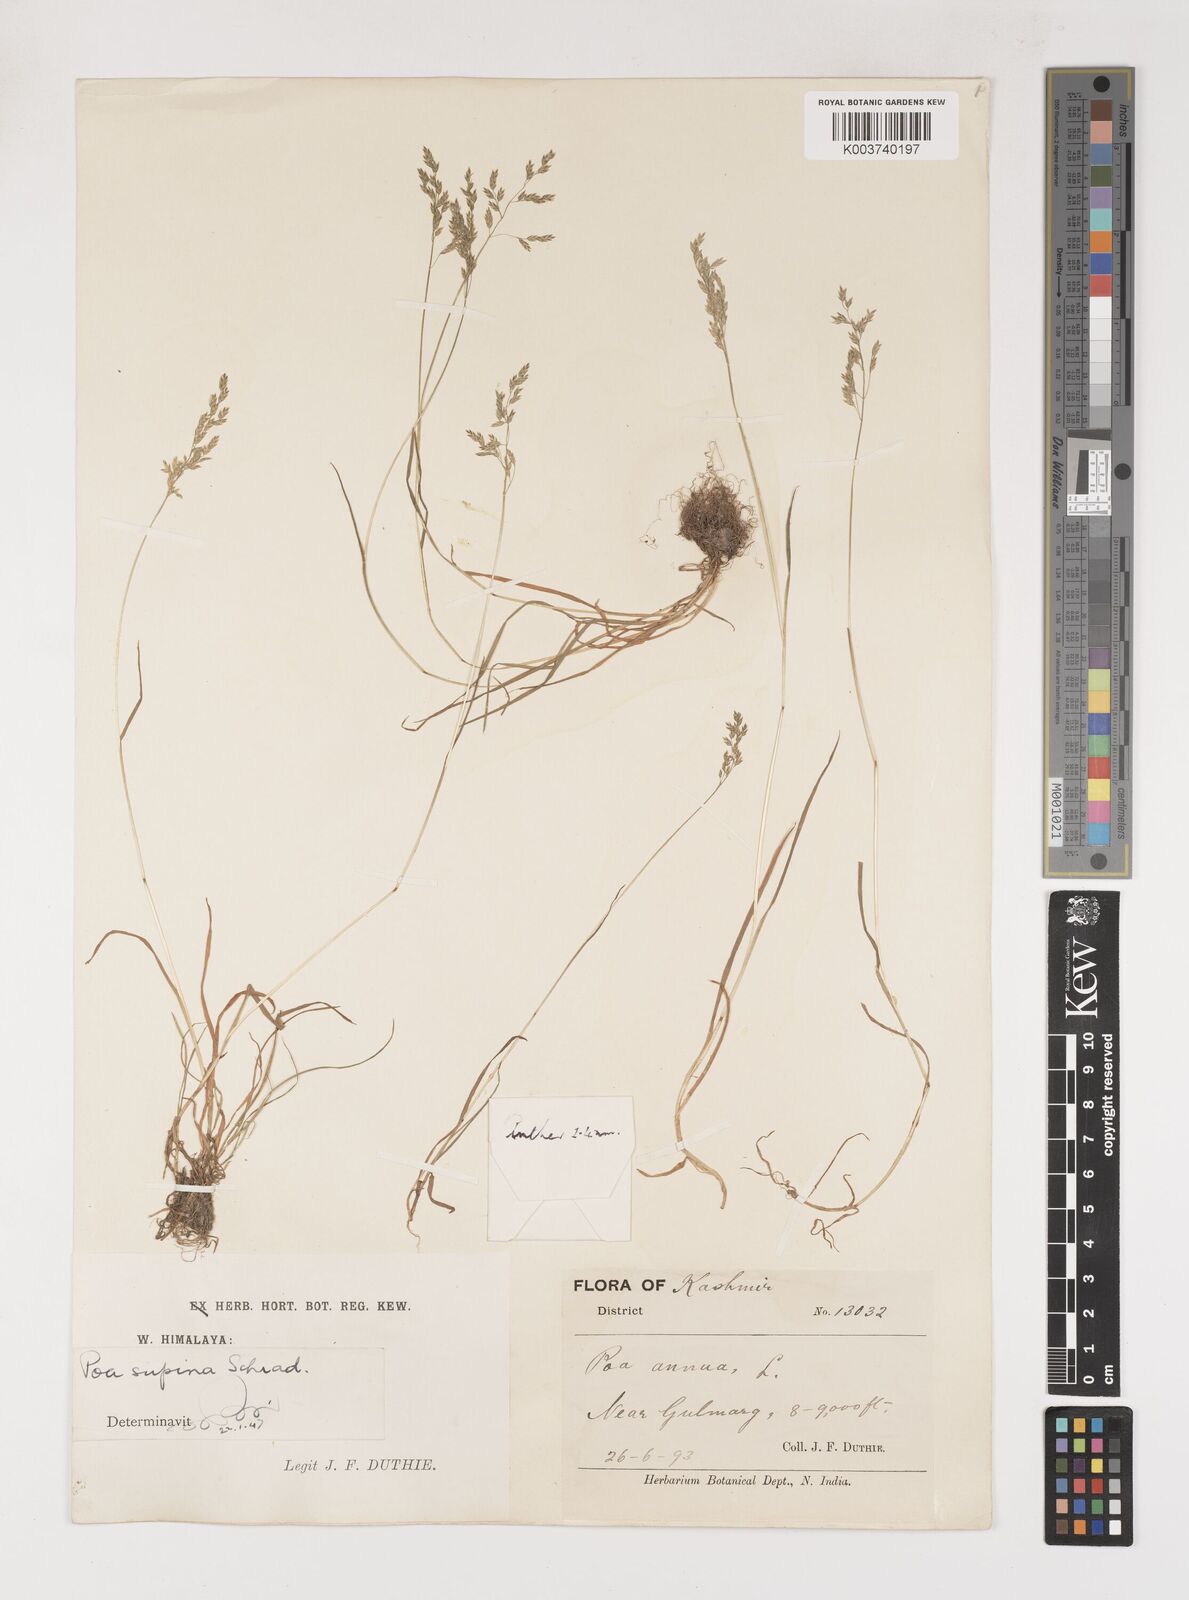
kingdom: Plantae
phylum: Tracheophyta
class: Liliopsida
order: Poales
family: Poaceae
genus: Poa
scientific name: Poa annua
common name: Annual bluegrass
